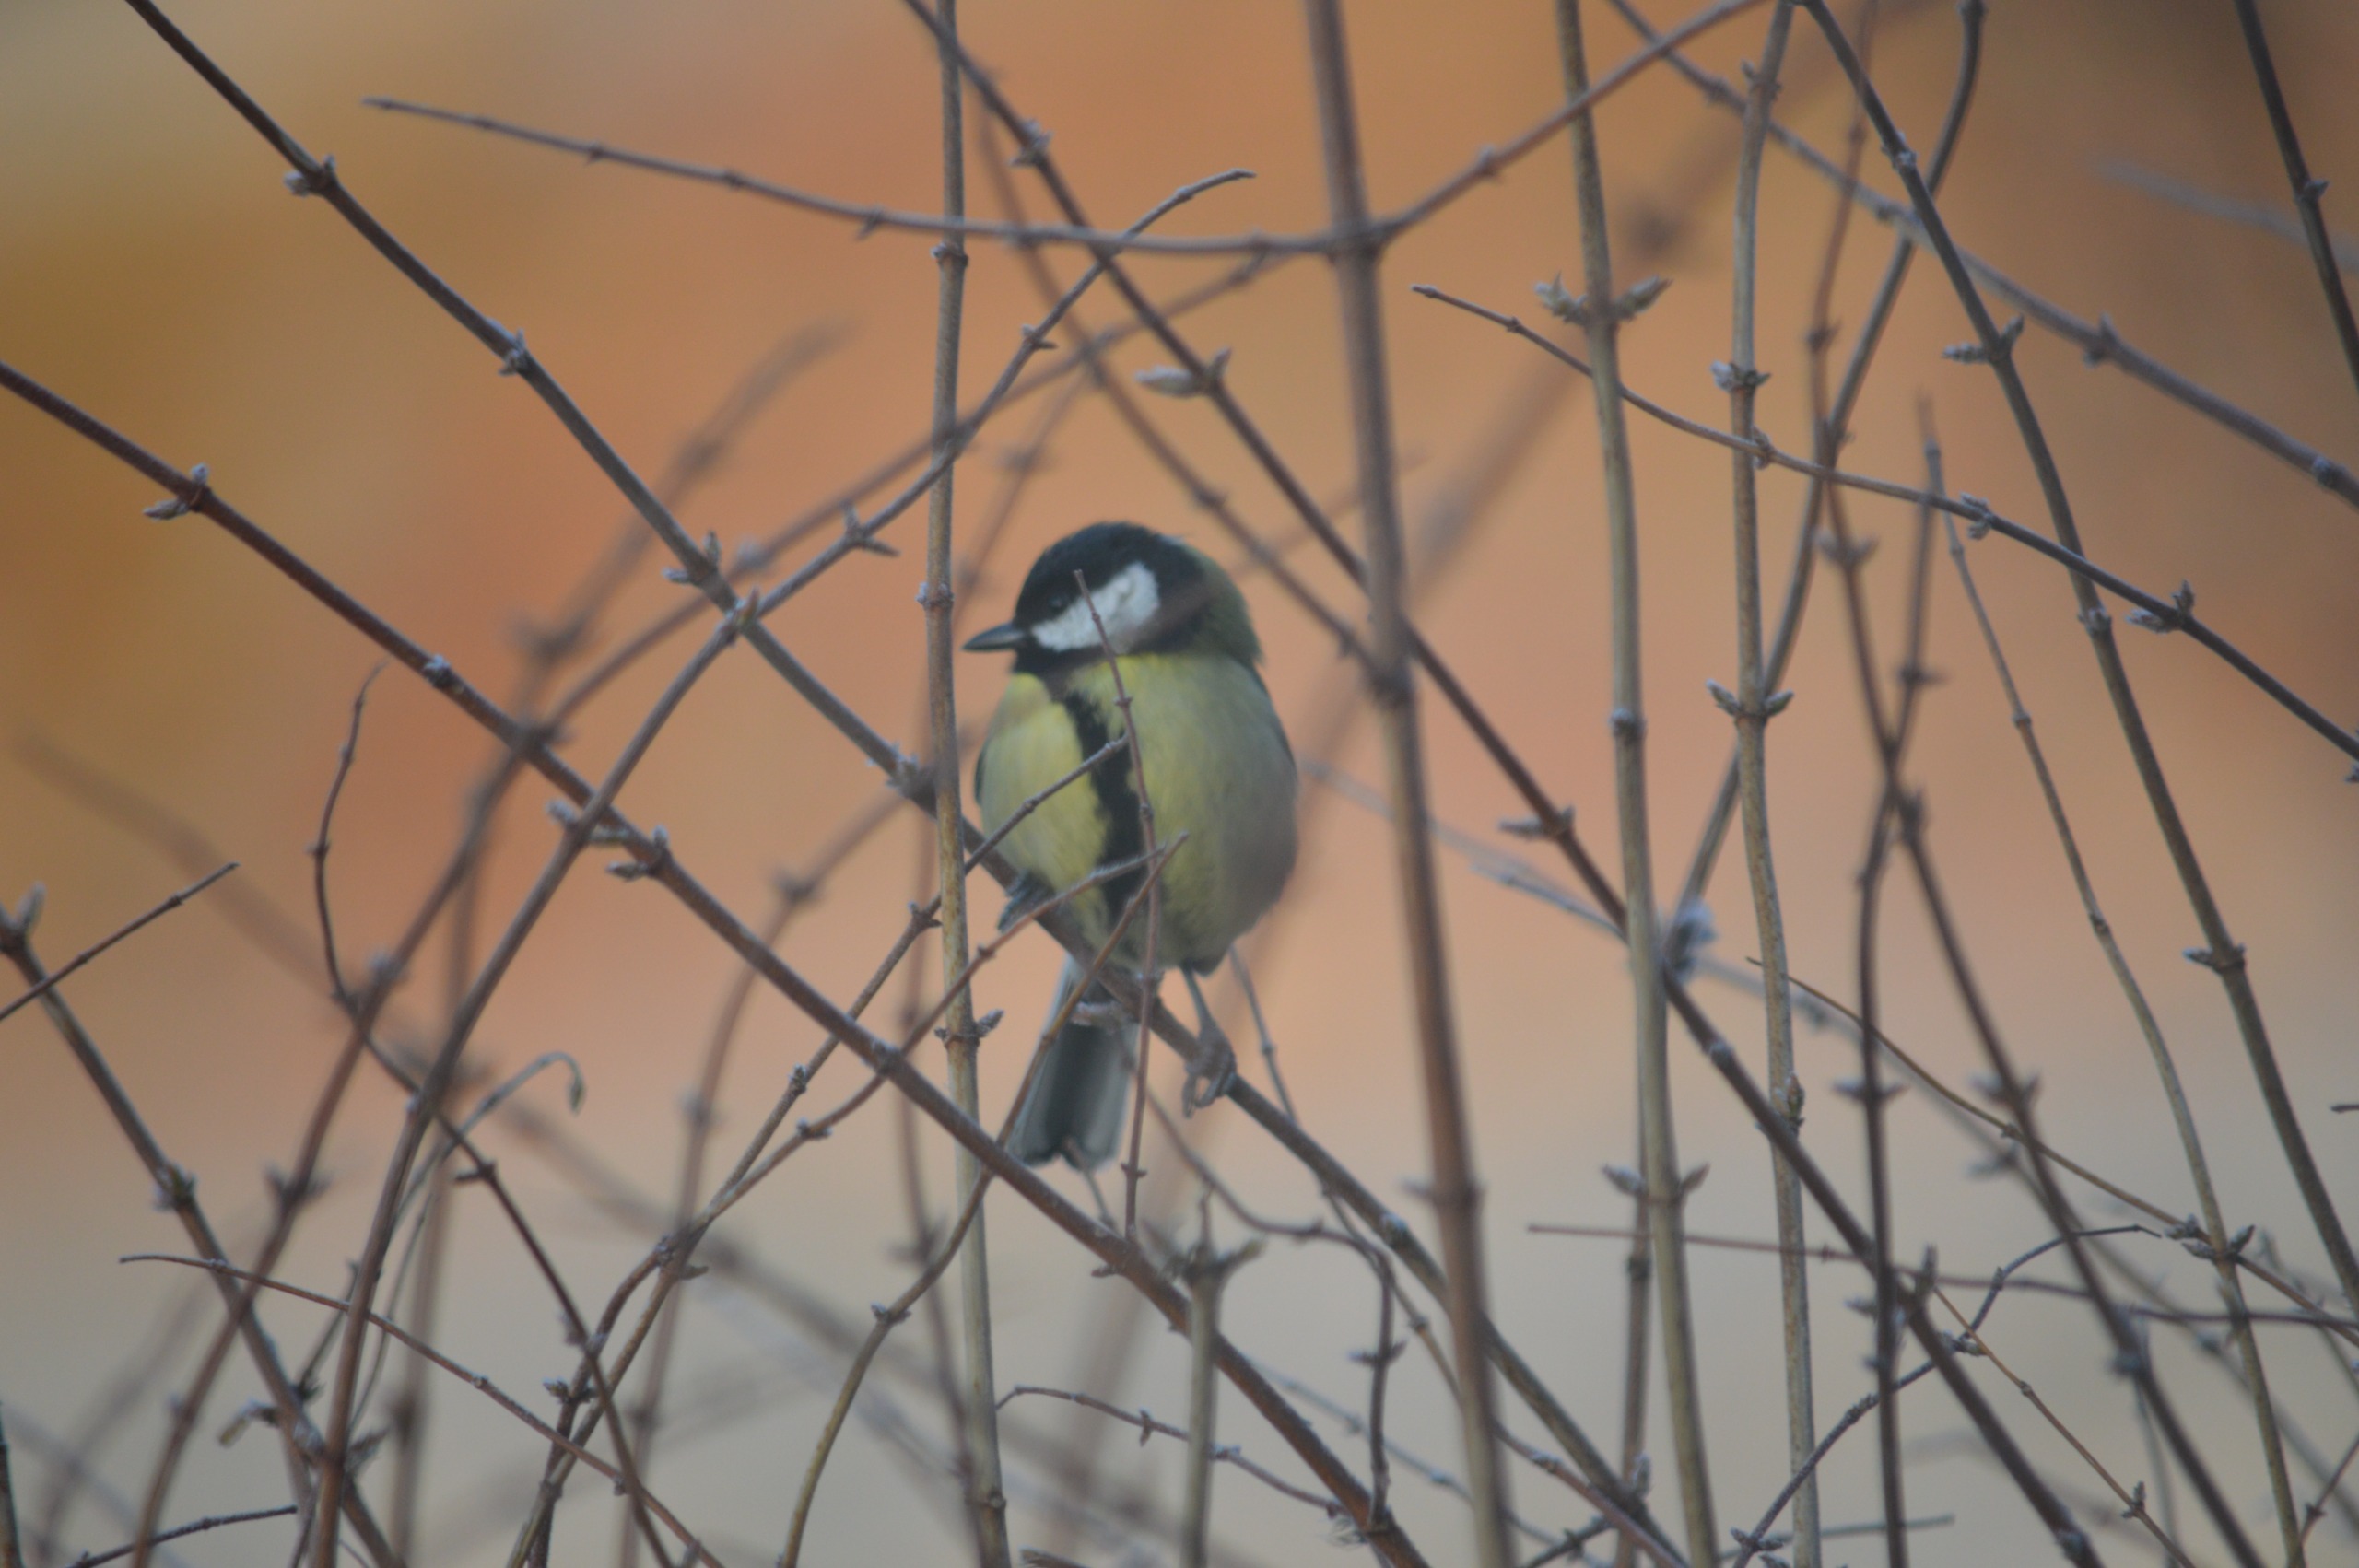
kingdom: Animalia
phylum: Chordata
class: Aves
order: Passeriformes
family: Paridae
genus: Parus
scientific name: Parus major
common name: Musvit
